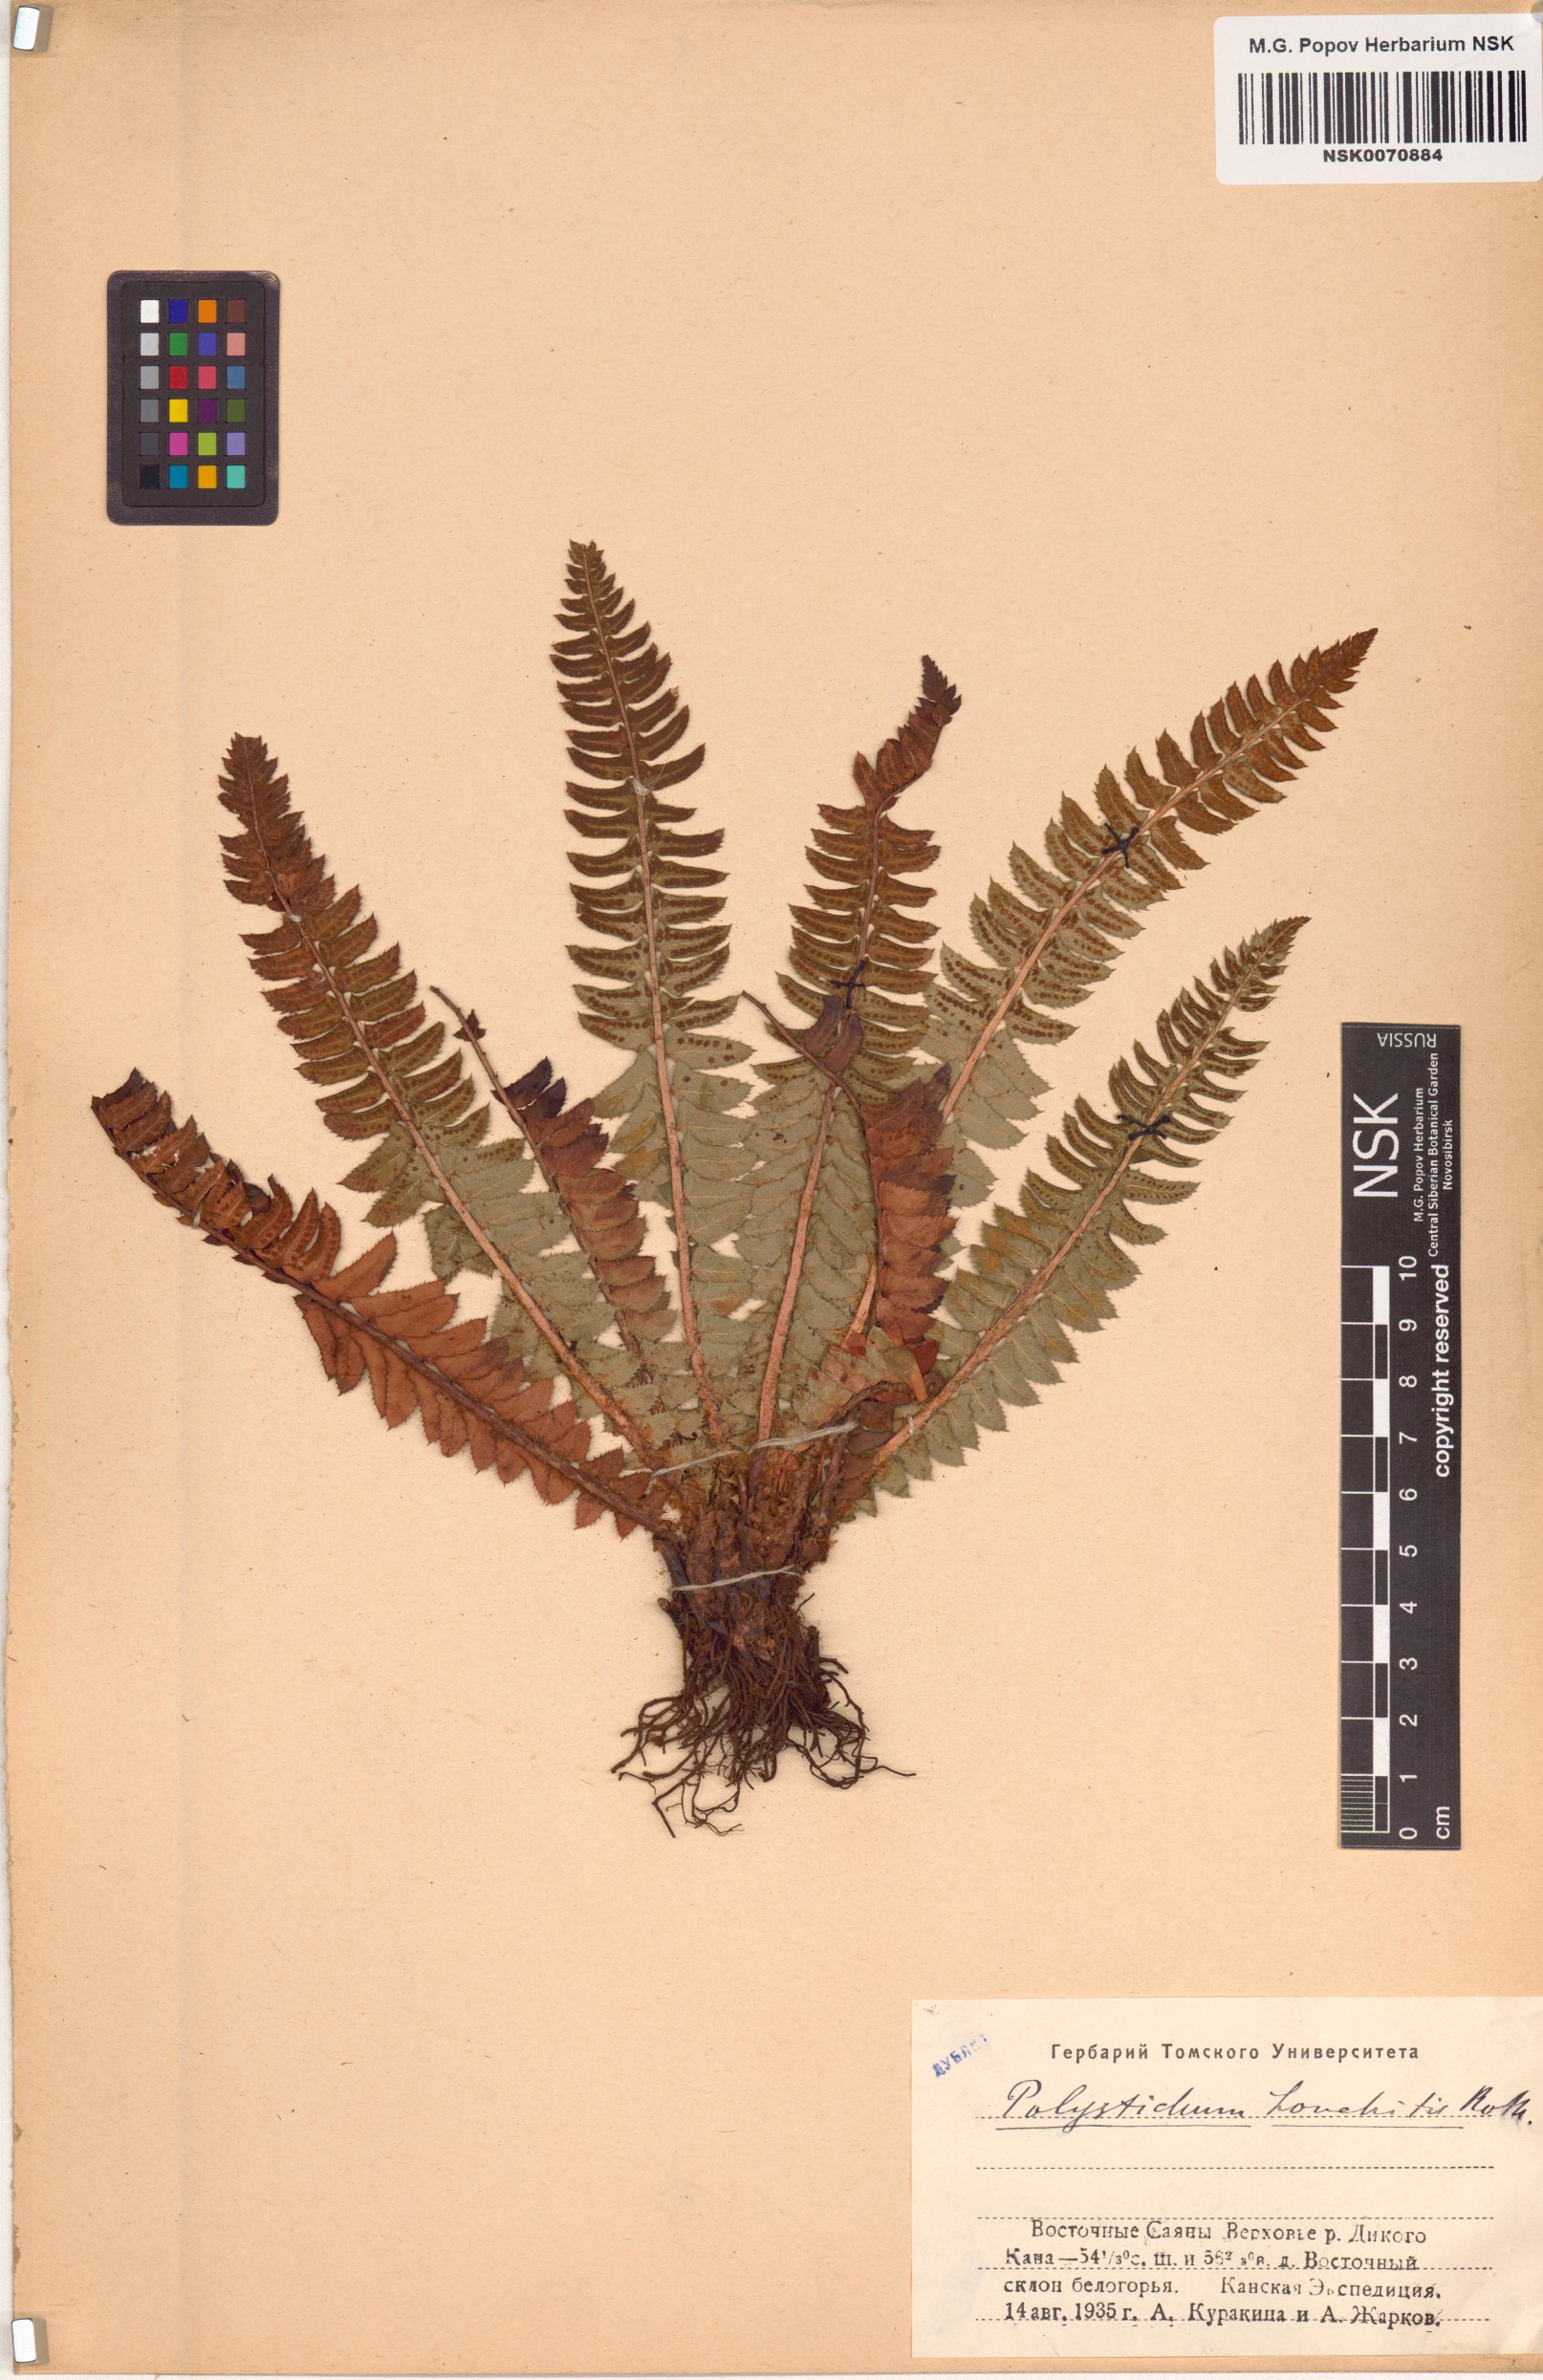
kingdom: Plantae
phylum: Tracheophyta
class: Polypodiopsida
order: Polypodiales
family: Dryopteridaceae
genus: Polystichum
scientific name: Polystichum lonchitis
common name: Holly fern
